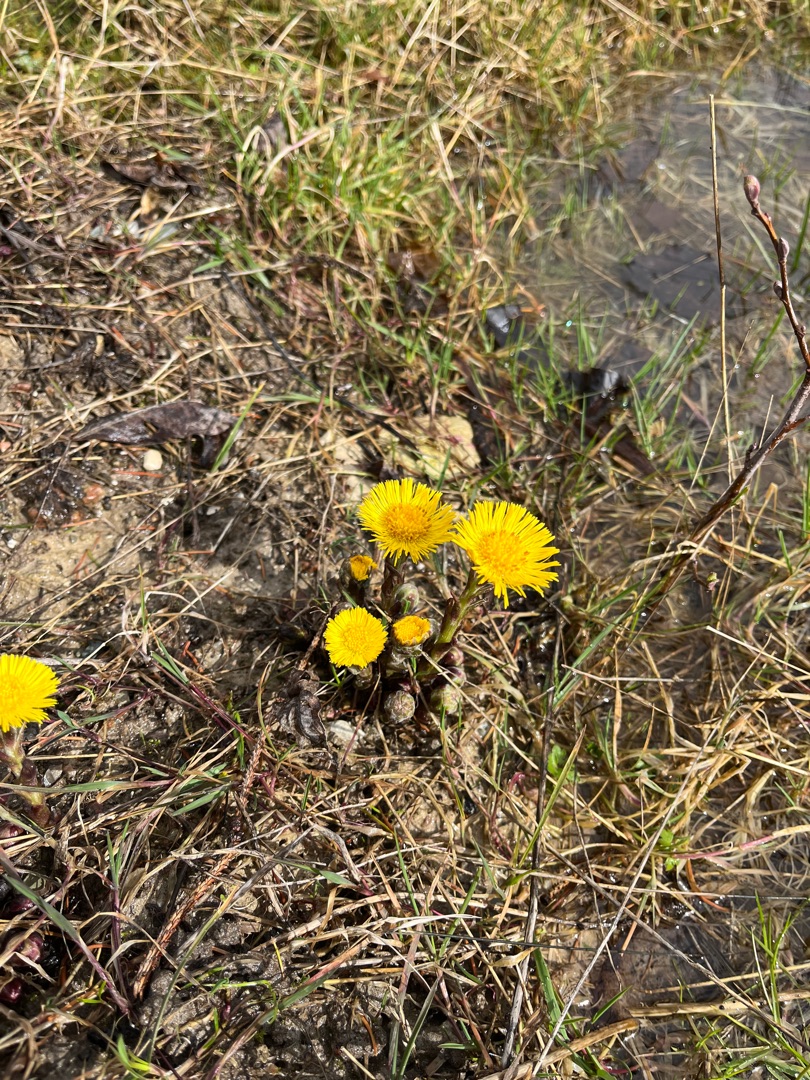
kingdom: Plantae
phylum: Tracheophyta
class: Magnoliopsida
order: Asterales
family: Asteraceae
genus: Tussilago
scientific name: Tussilago farfara
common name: Følfod
